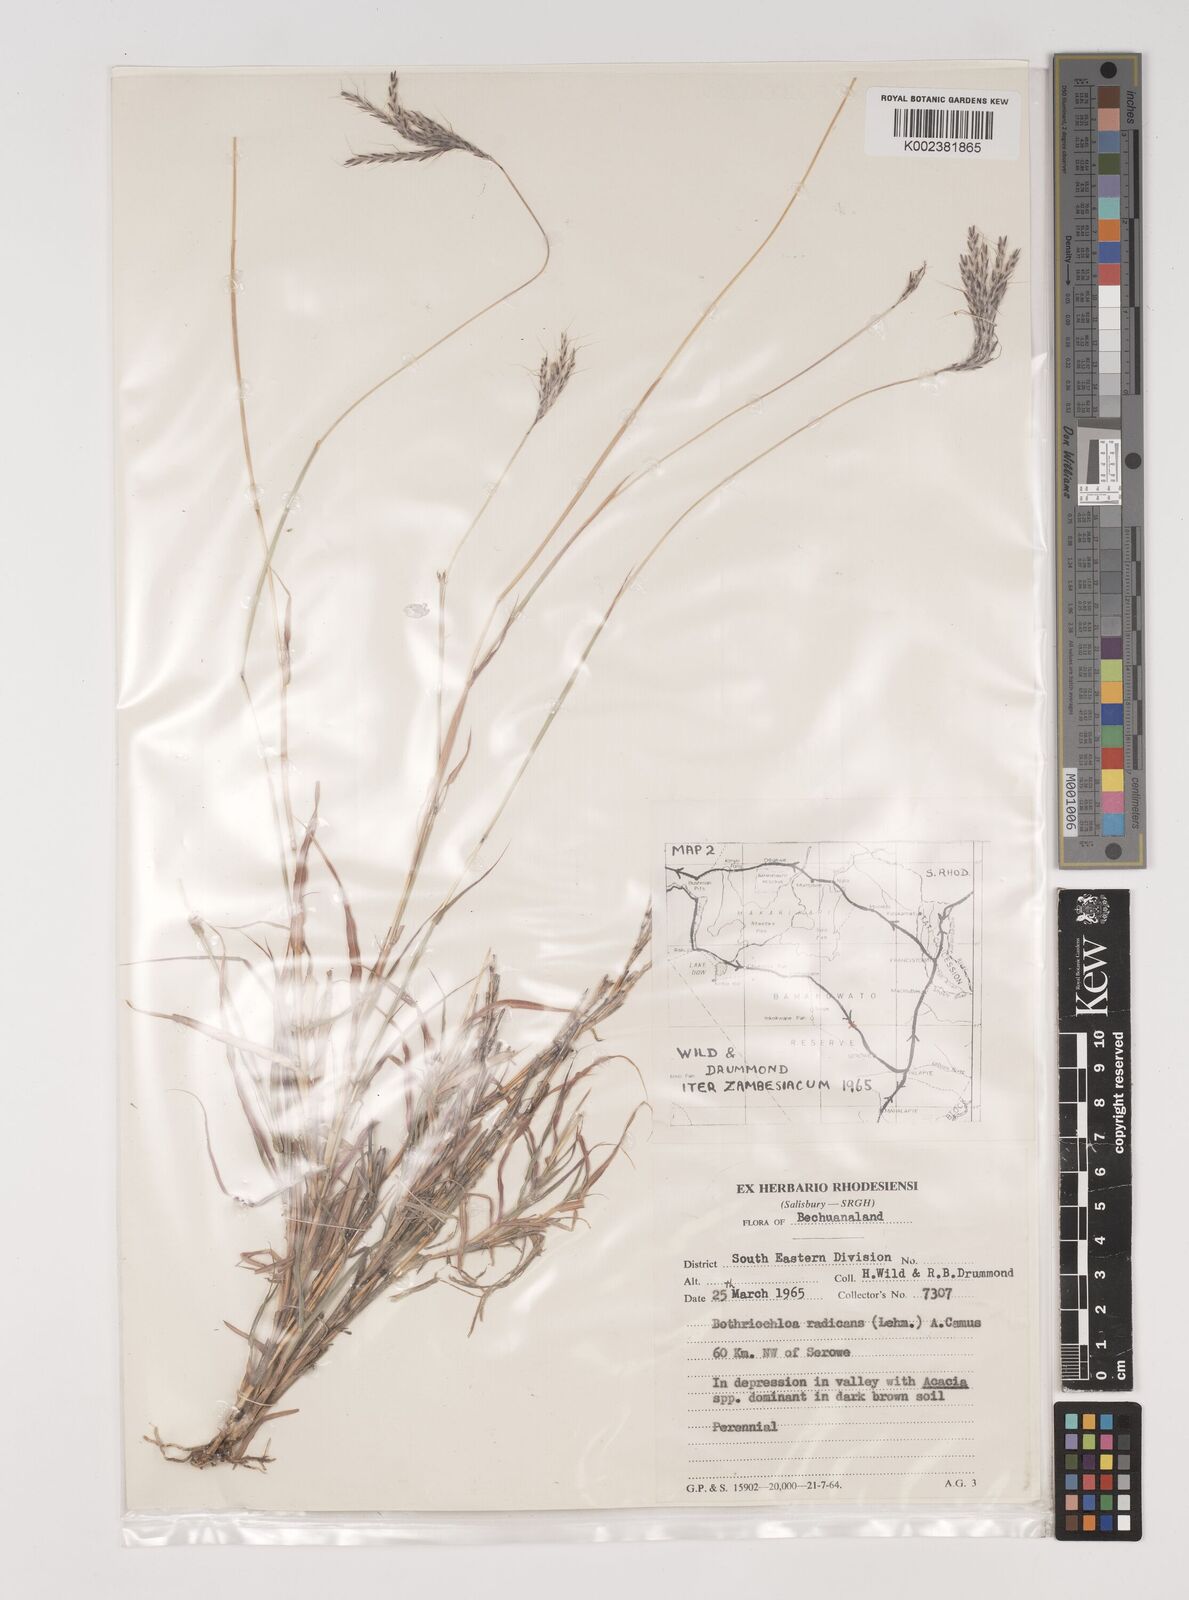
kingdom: Plantae
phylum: Tracheophyta
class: Liliopsida
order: Poales
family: Poaceae
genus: Bothriochloa
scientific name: Bothriochloa radicans
